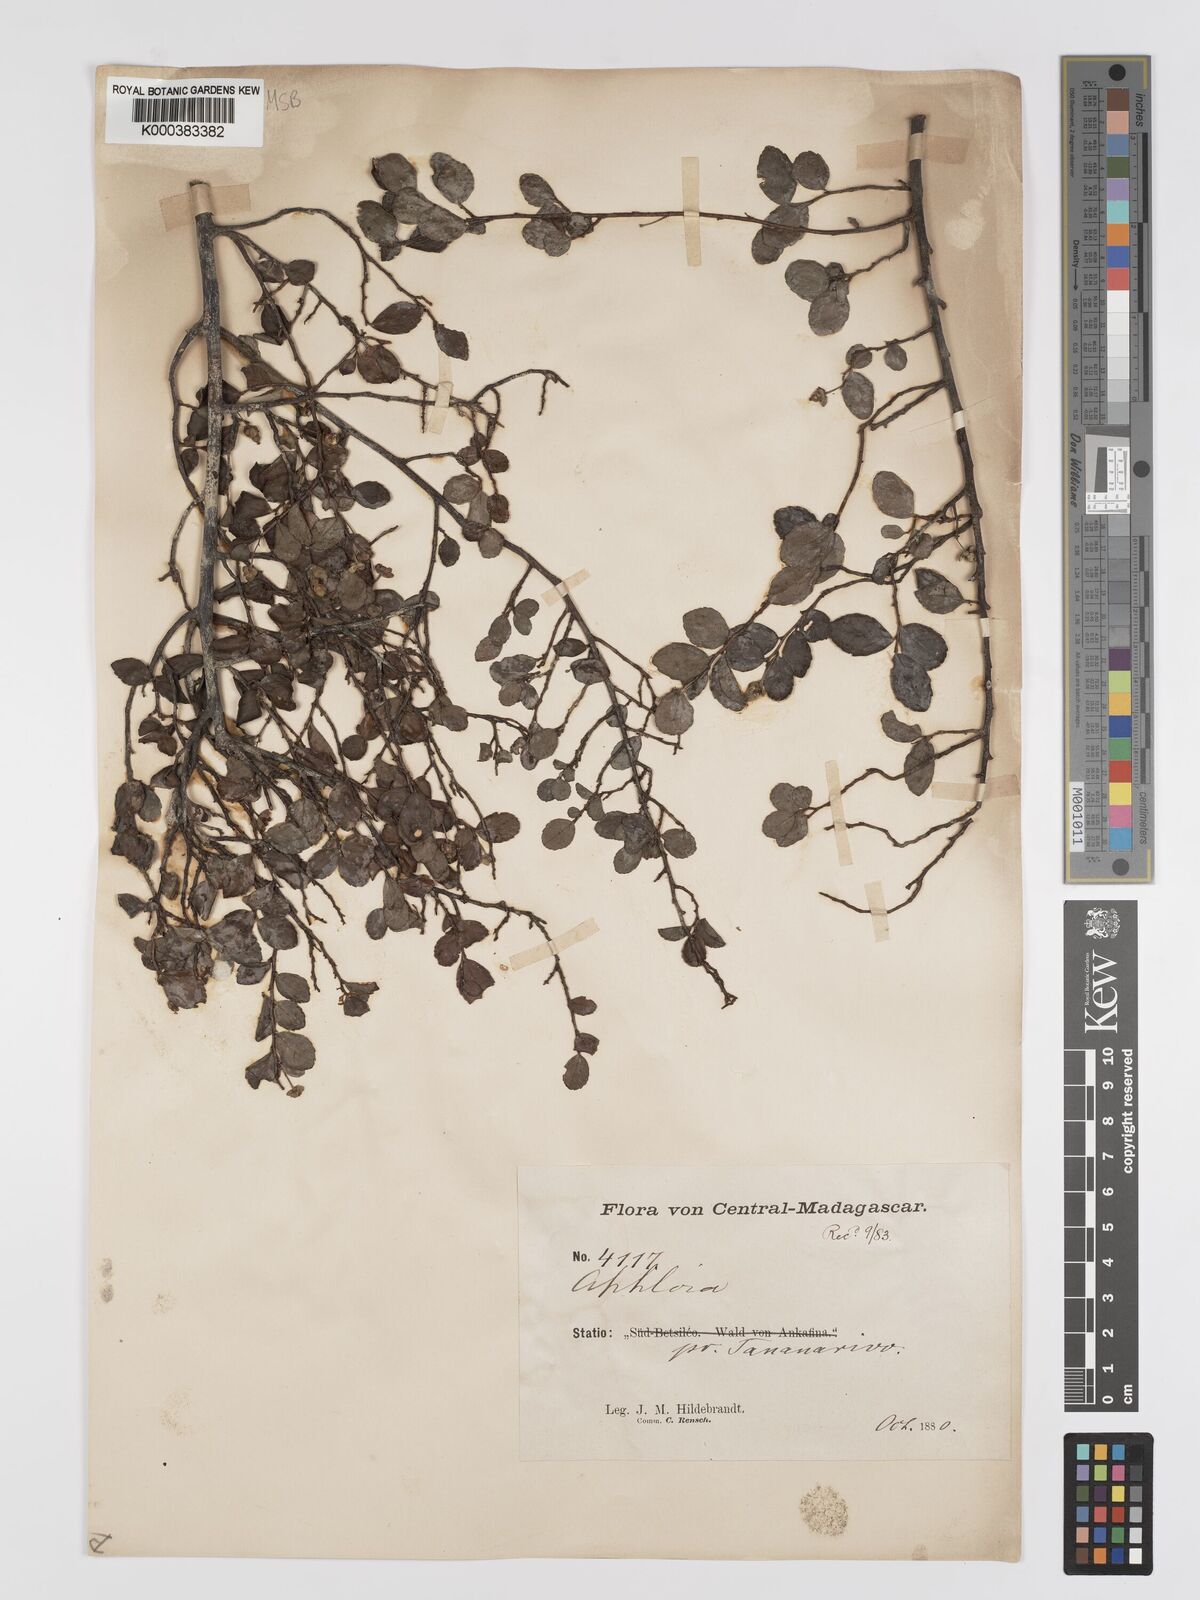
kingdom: Plantae
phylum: Tracheophyta
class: Magnoliopsida
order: Crossosomatales
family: Aphloiaceae
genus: Aphloia
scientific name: Aphloia theiformis
